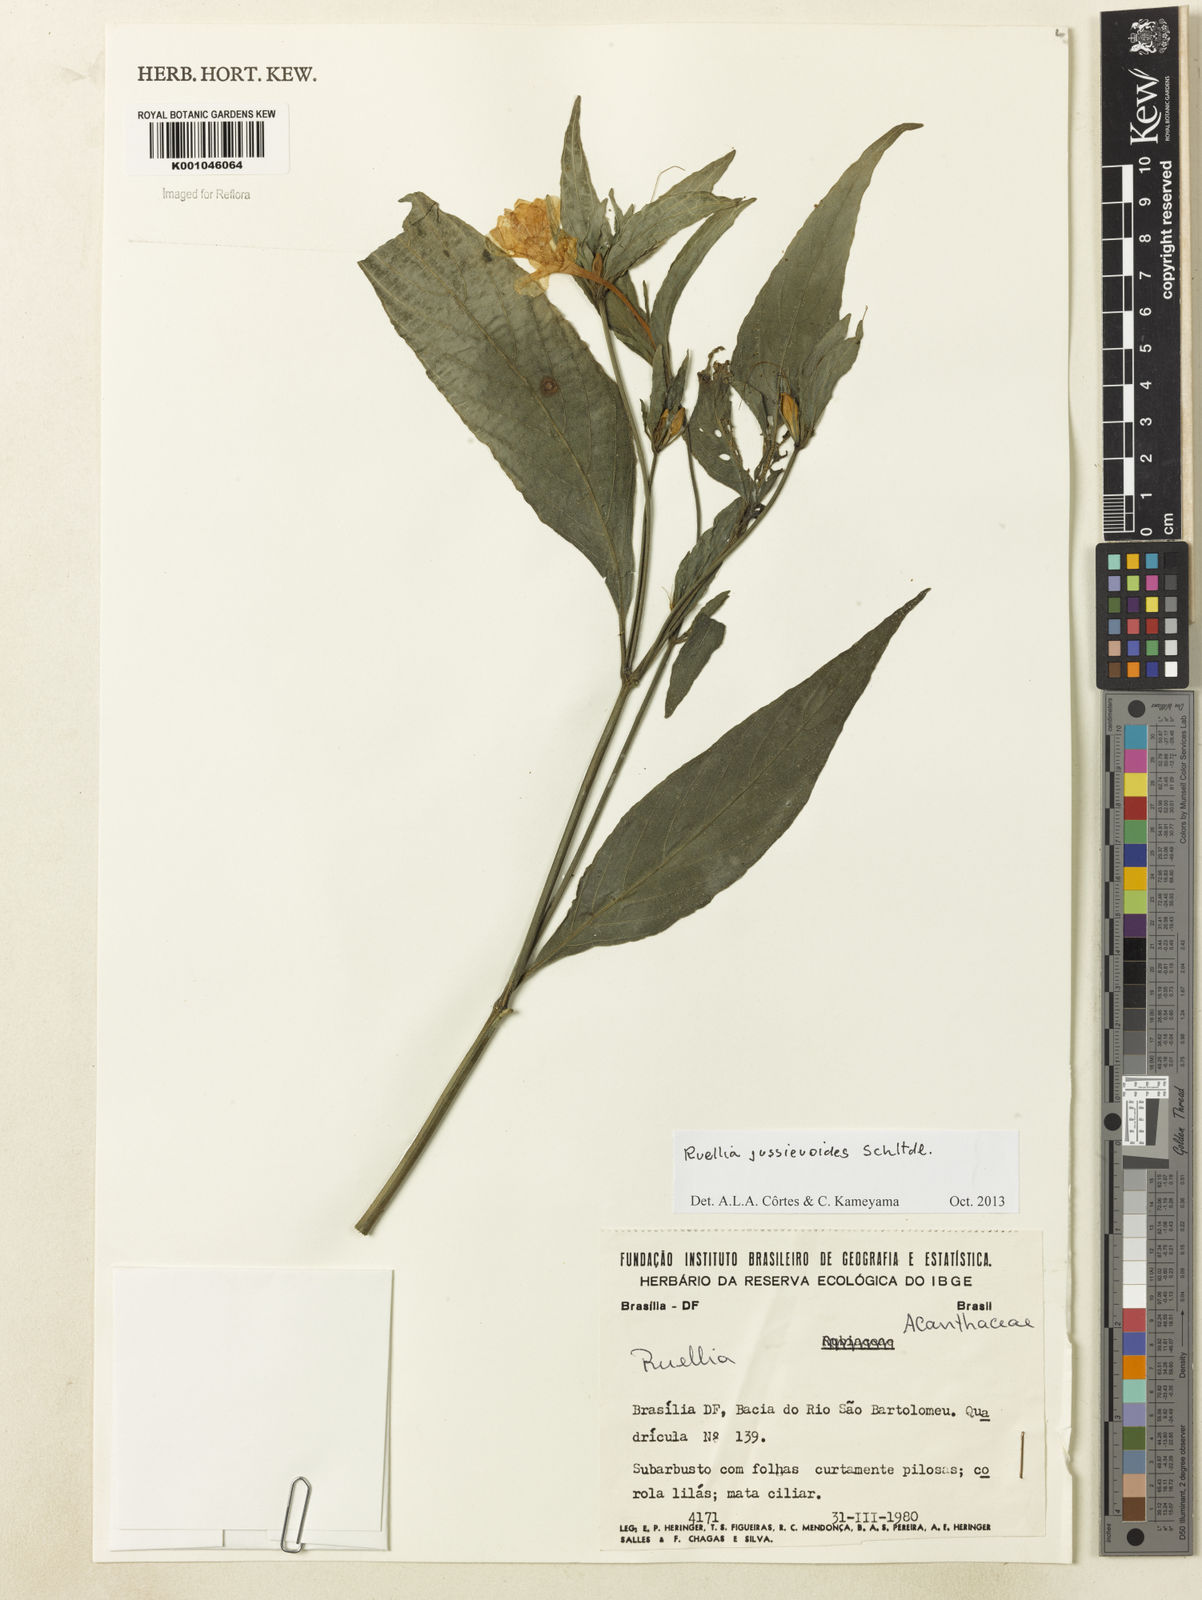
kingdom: Plantae
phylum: Tracheophyta
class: Magnoliopsida
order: Lamiales
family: Acanthaceae
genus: Ruellia
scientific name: Ruellia jussieuoides
